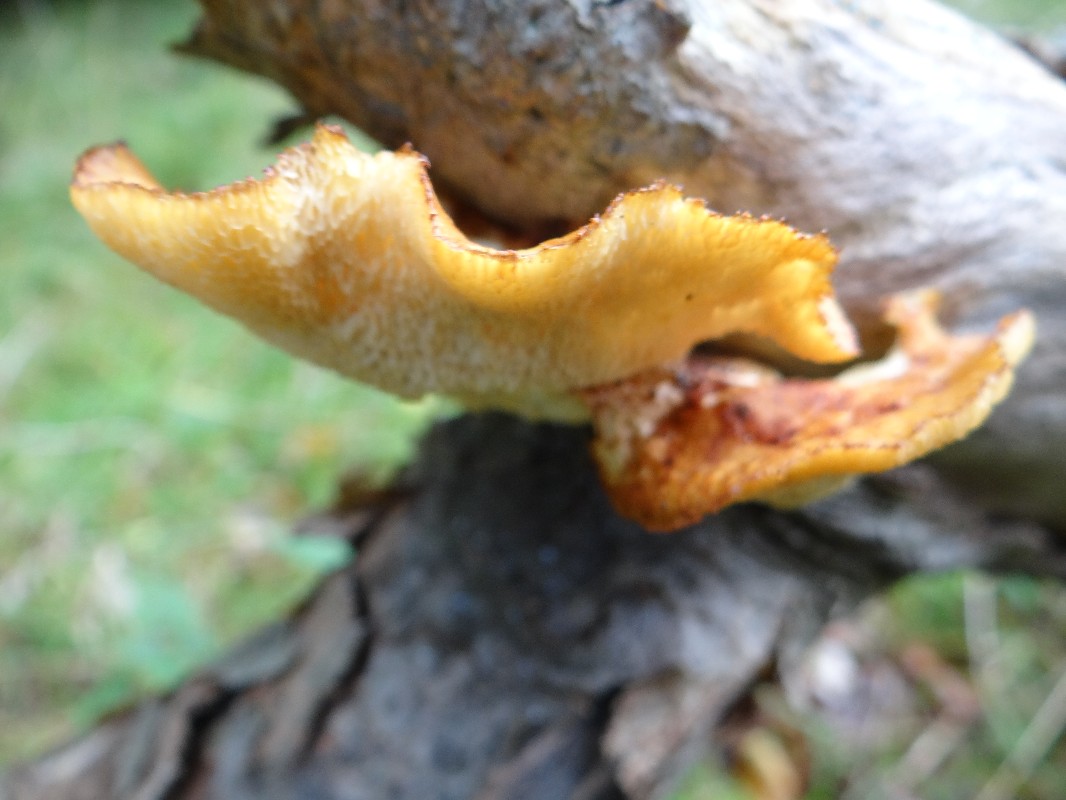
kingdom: Fungi
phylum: Basidiomycota
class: Agaricomycetes
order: Polyporales
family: Polyporaceae
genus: Cerioporus
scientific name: Cerioporus squamosus
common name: skællet stilkporesvamp
